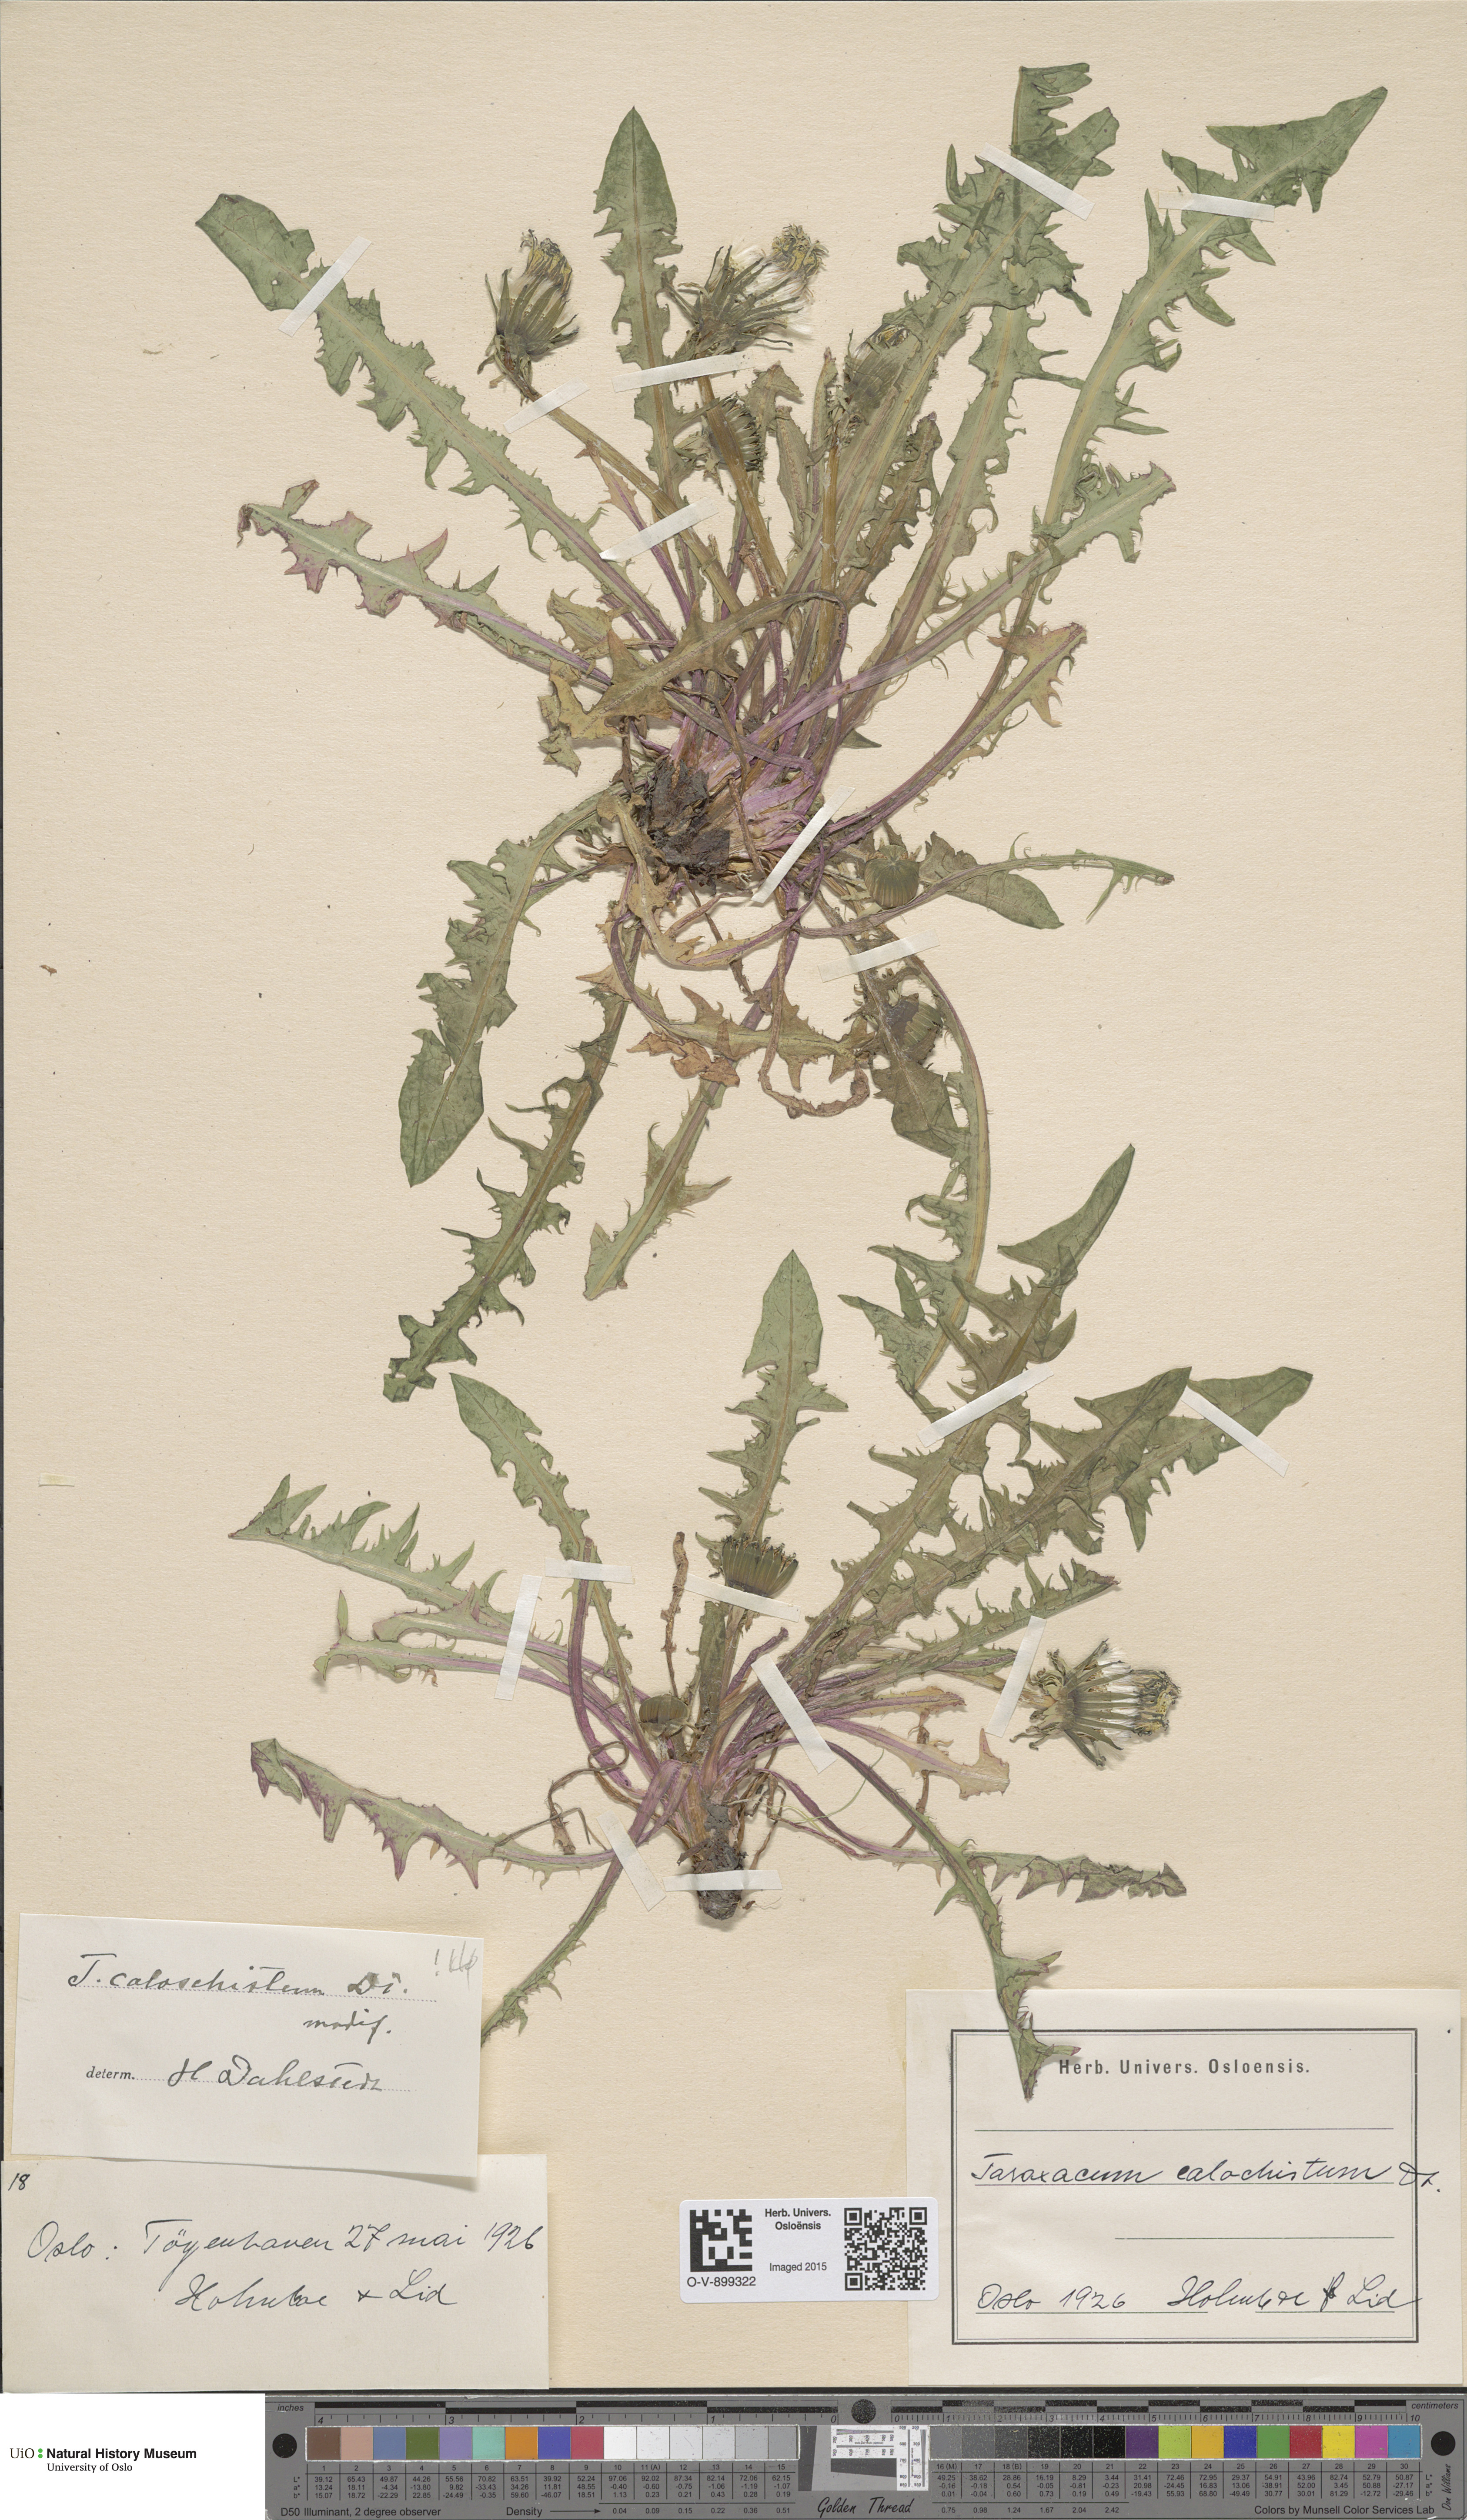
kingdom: Plantae
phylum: Tracheophyta
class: Magnoliopsida
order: Asterales
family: Asteraceae
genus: Taraxacum
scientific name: Taraxacum caloschistum
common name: Brilliant-stalked dandelion
